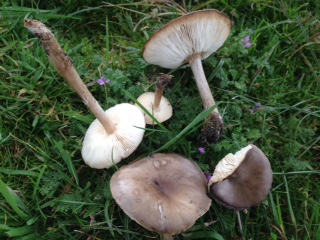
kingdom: Fungi
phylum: Basidiomycota
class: Agaricomycetes
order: Agaricales
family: Tricholomataceae
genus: Melanoleuca
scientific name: Melanoleuca polioleuca
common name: almindelig munkehat
